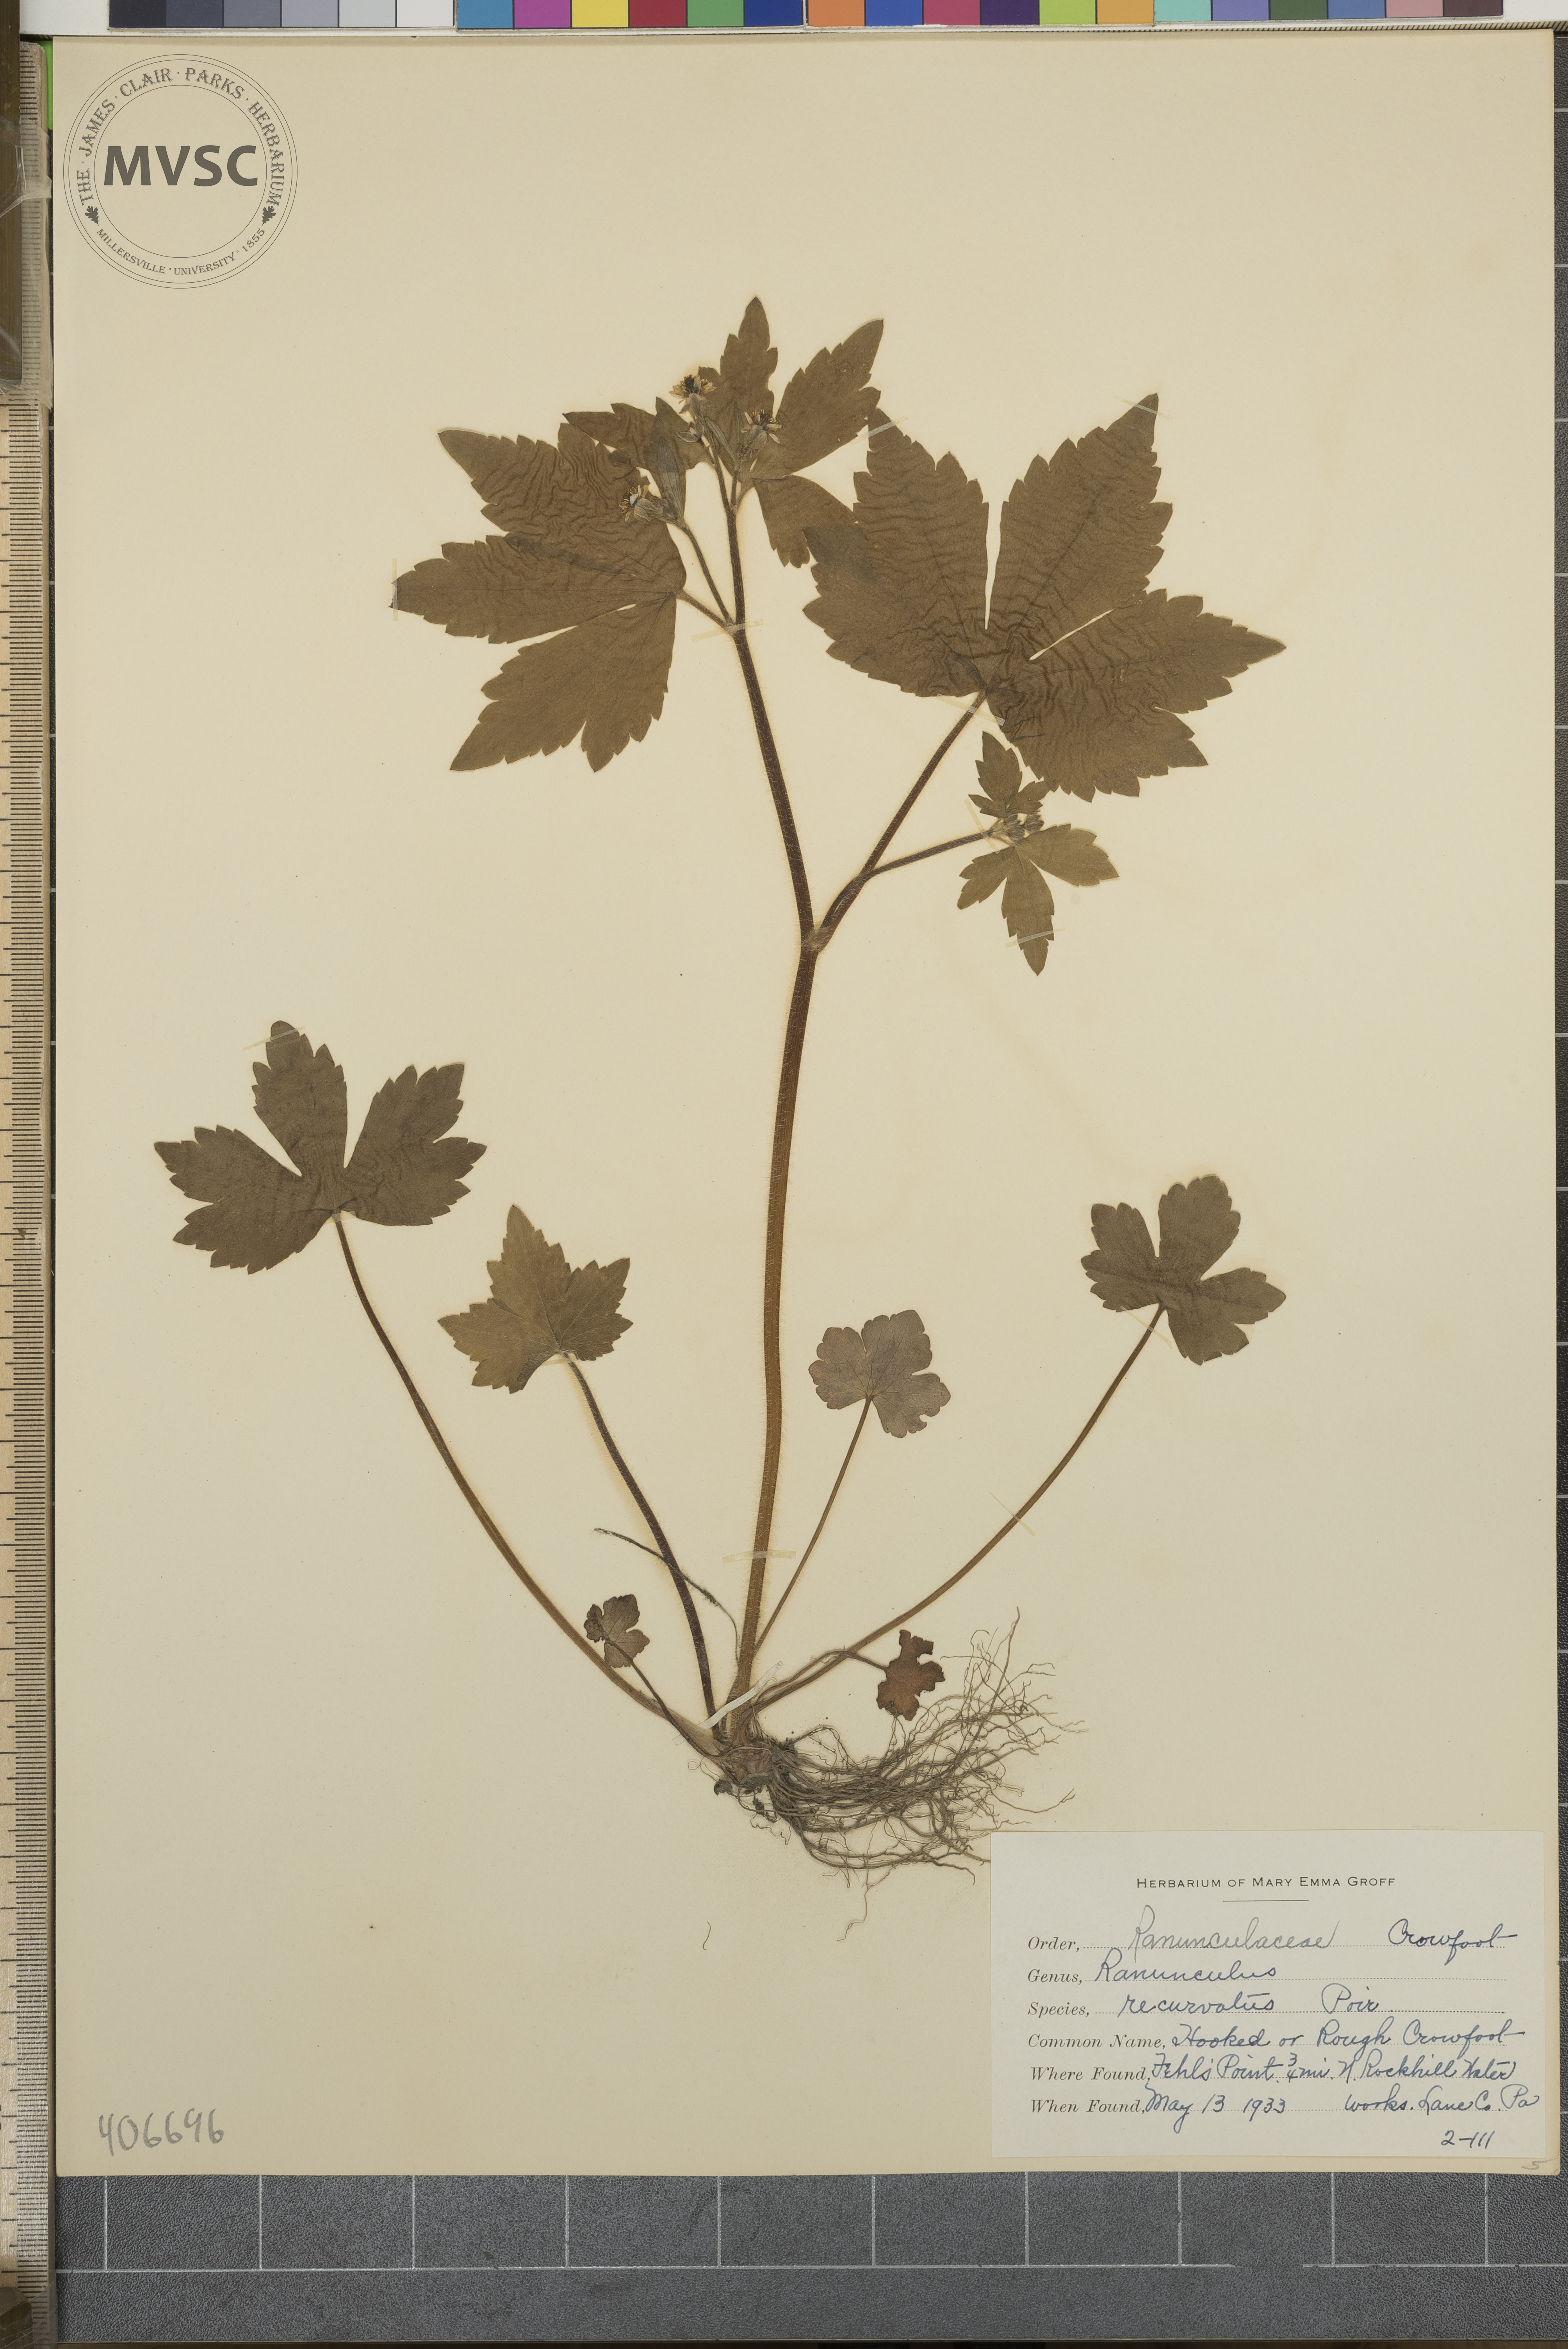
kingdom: Plantae
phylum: Tracheophyta
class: Magnoliopsida
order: Ranunculales
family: Ranunculaceae
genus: Ranunculus
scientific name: Ranunculus recurvatus
